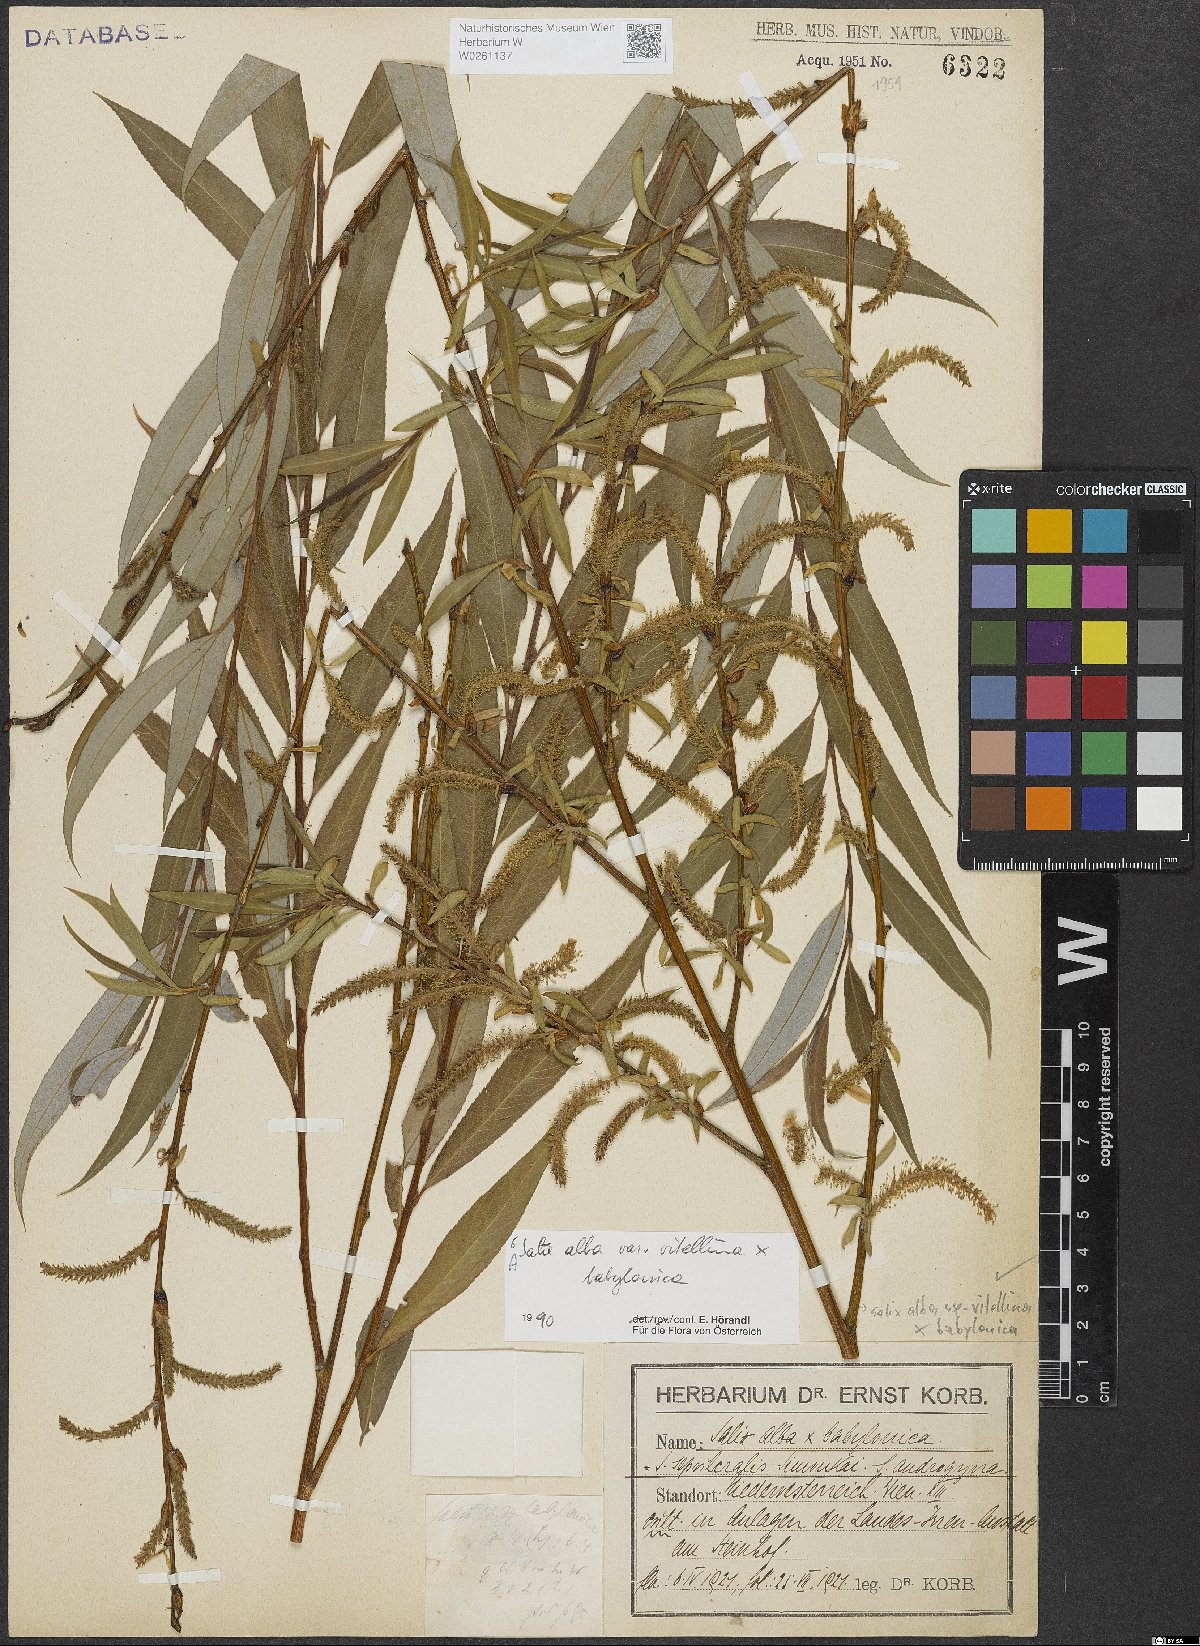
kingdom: Plantae
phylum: Tracheophyta
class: Magnoliopsida
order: Malpighiales
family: Salicaceae
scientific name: Salicaceae
